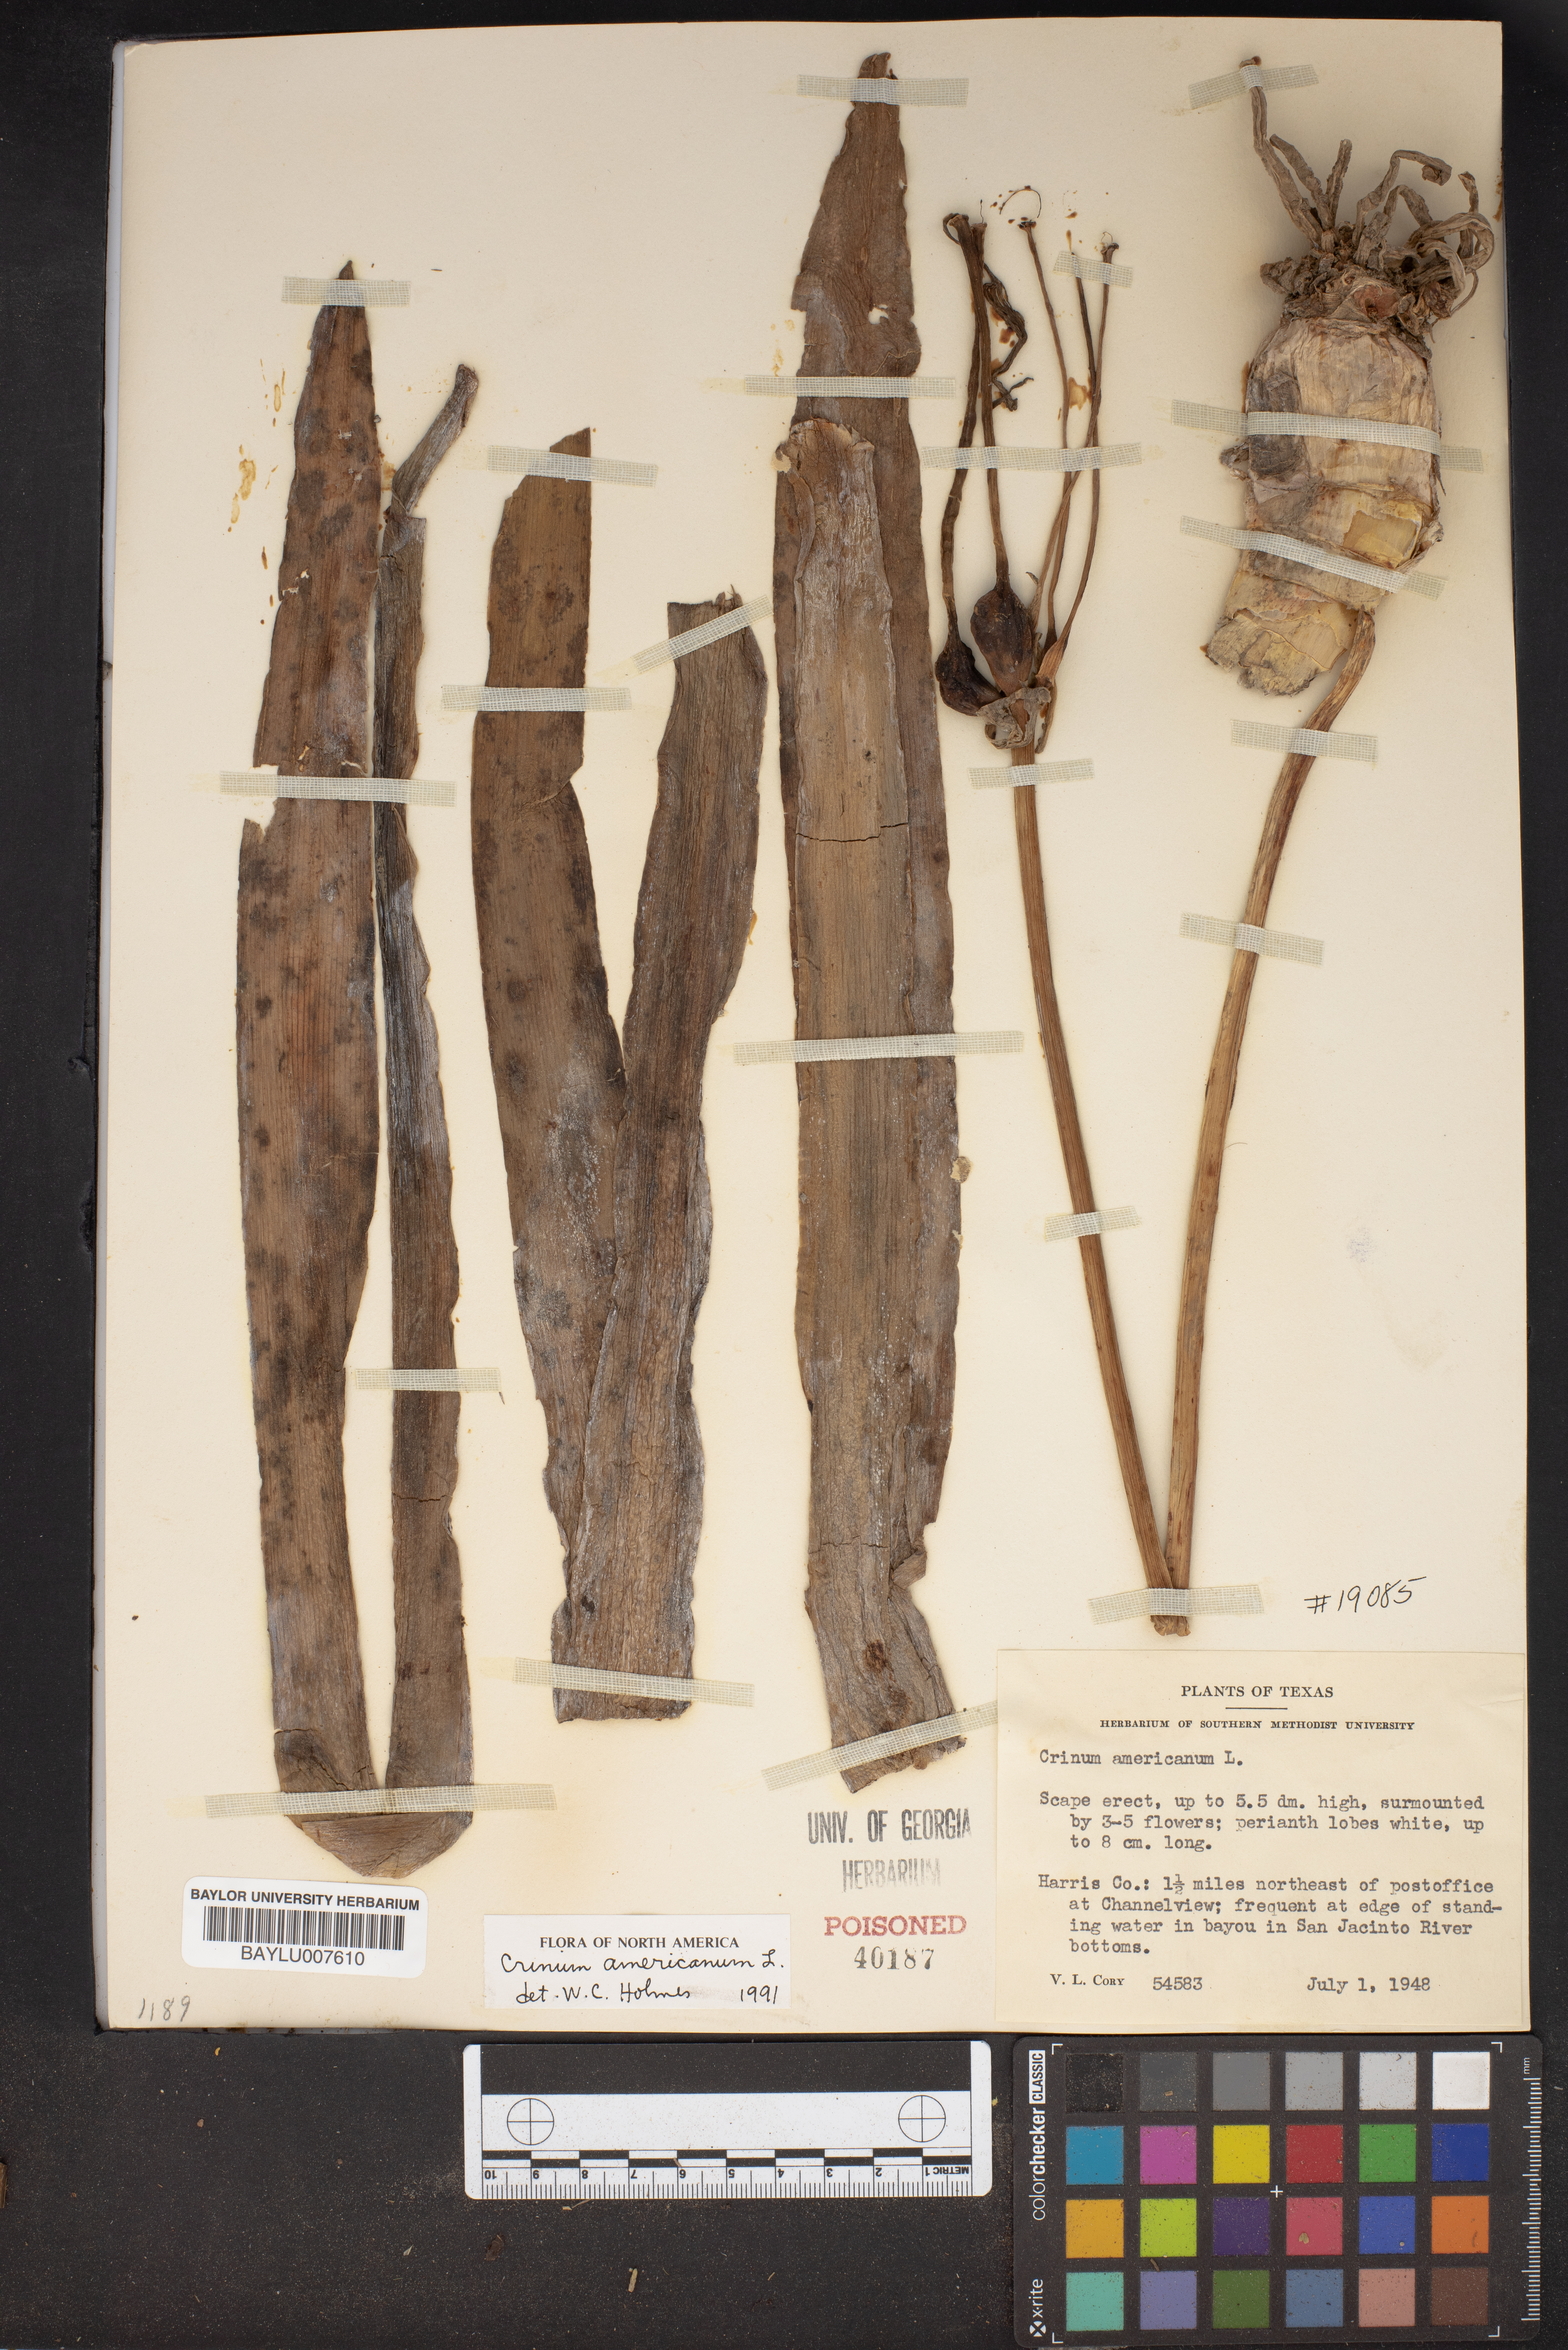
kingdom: Plantae
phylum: Tracheophyta
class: Liliopsida
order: Asparagales
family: Amaryllidaceae
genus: Crinum
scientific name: Crinum americanum
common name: Florida swamp-lily
